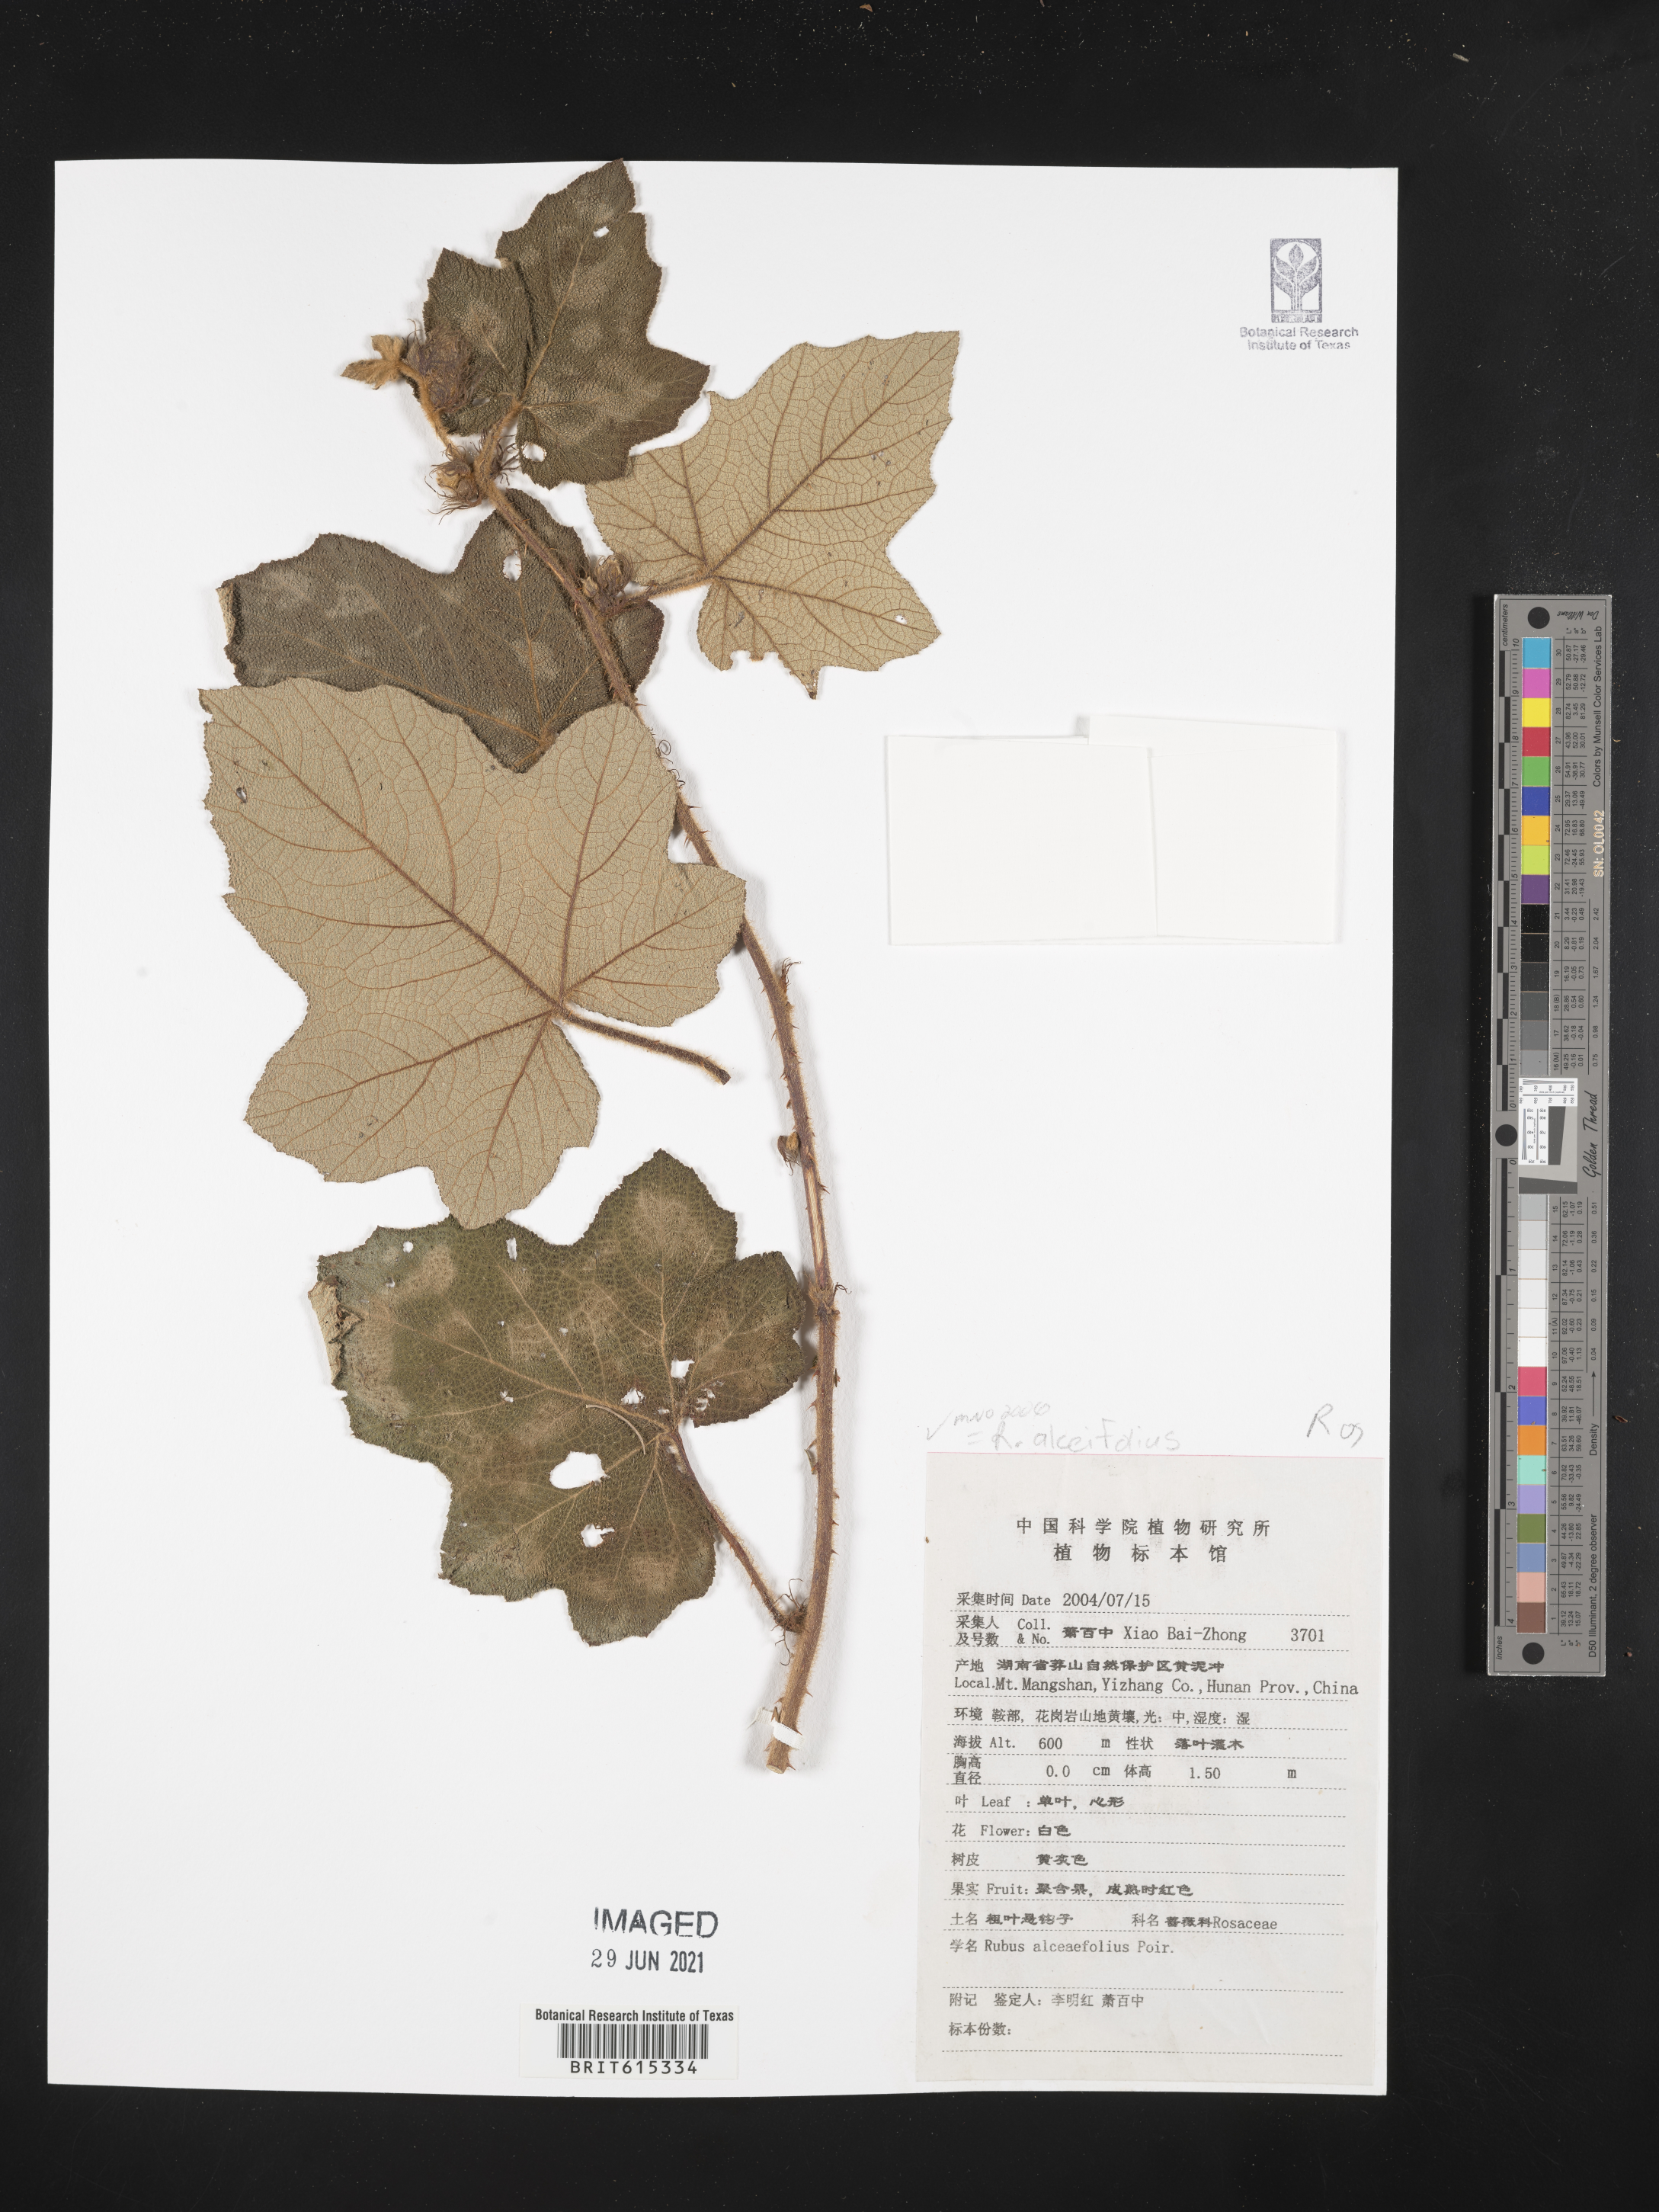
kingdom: Plantae
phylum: Tracheophyta
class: Magnoliopsida
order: Rosales
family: Rosaceae
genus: Rubus
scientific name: Rubus alceifolius
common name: Giant bramble
